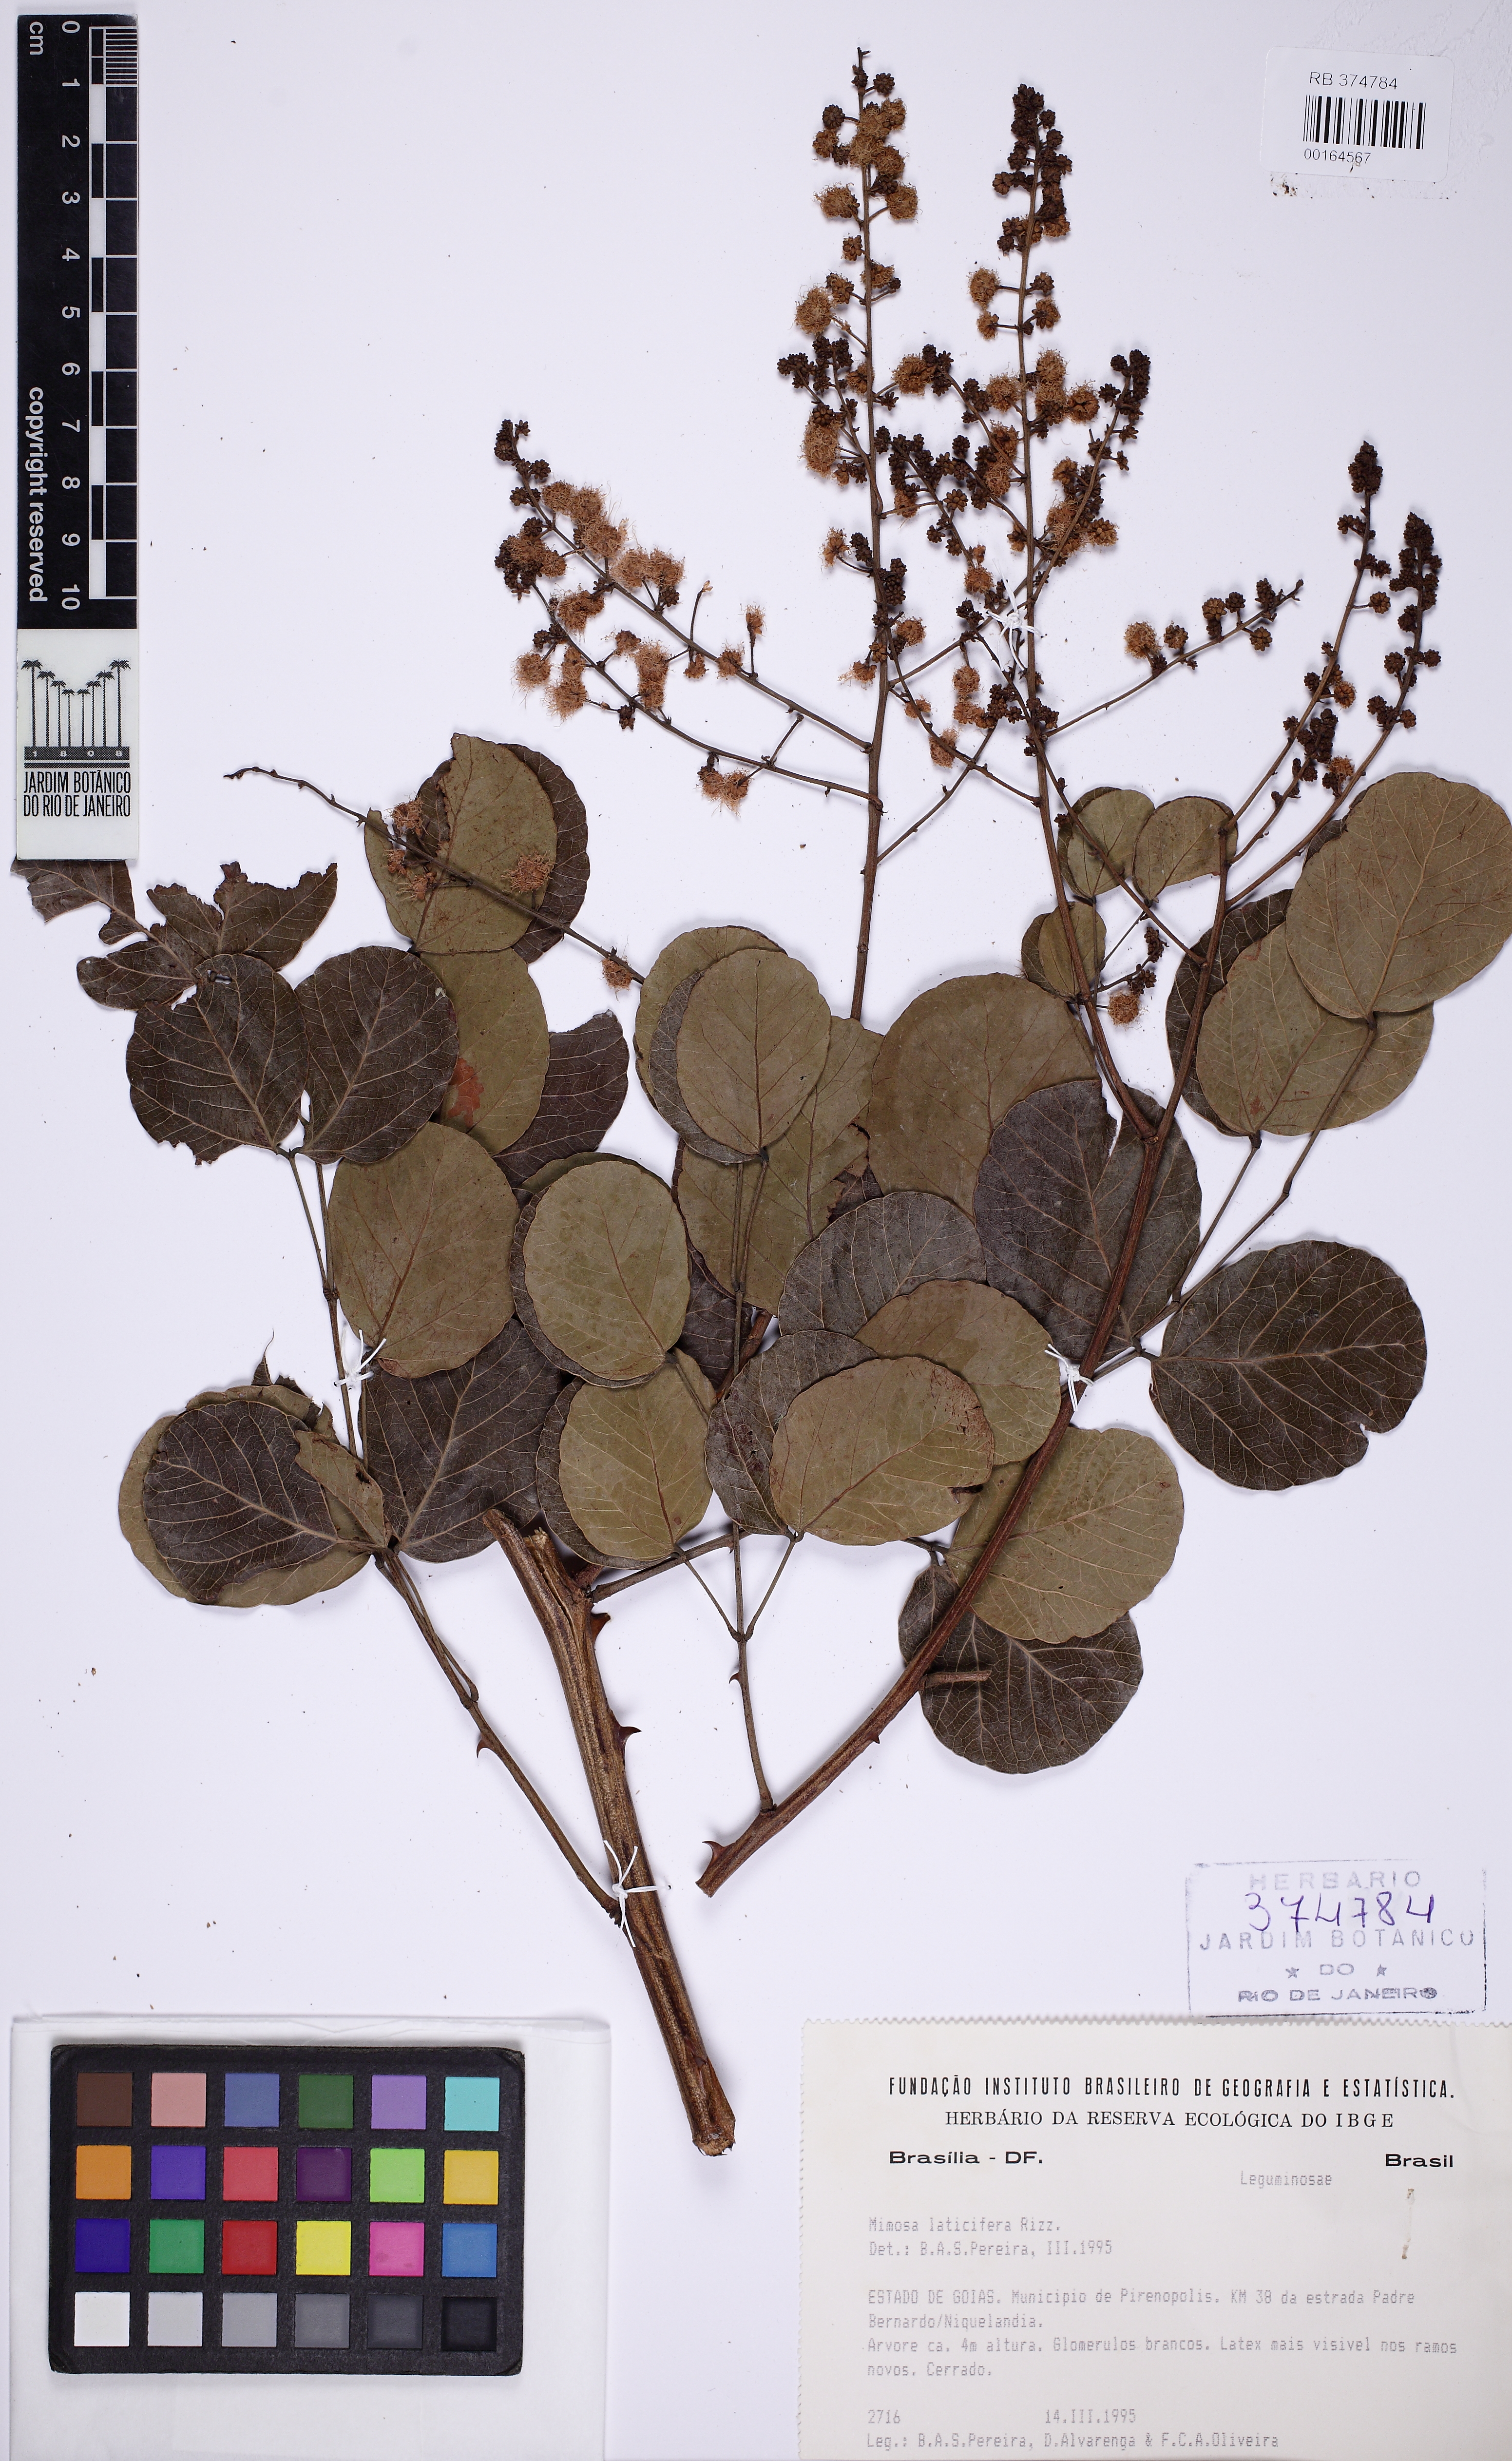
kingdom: Plantae
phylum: Tracheophyta
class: Magnoliopsida
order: Fabales
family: Fabaceae
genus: Mimosa
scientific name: Mimosa laticifera
